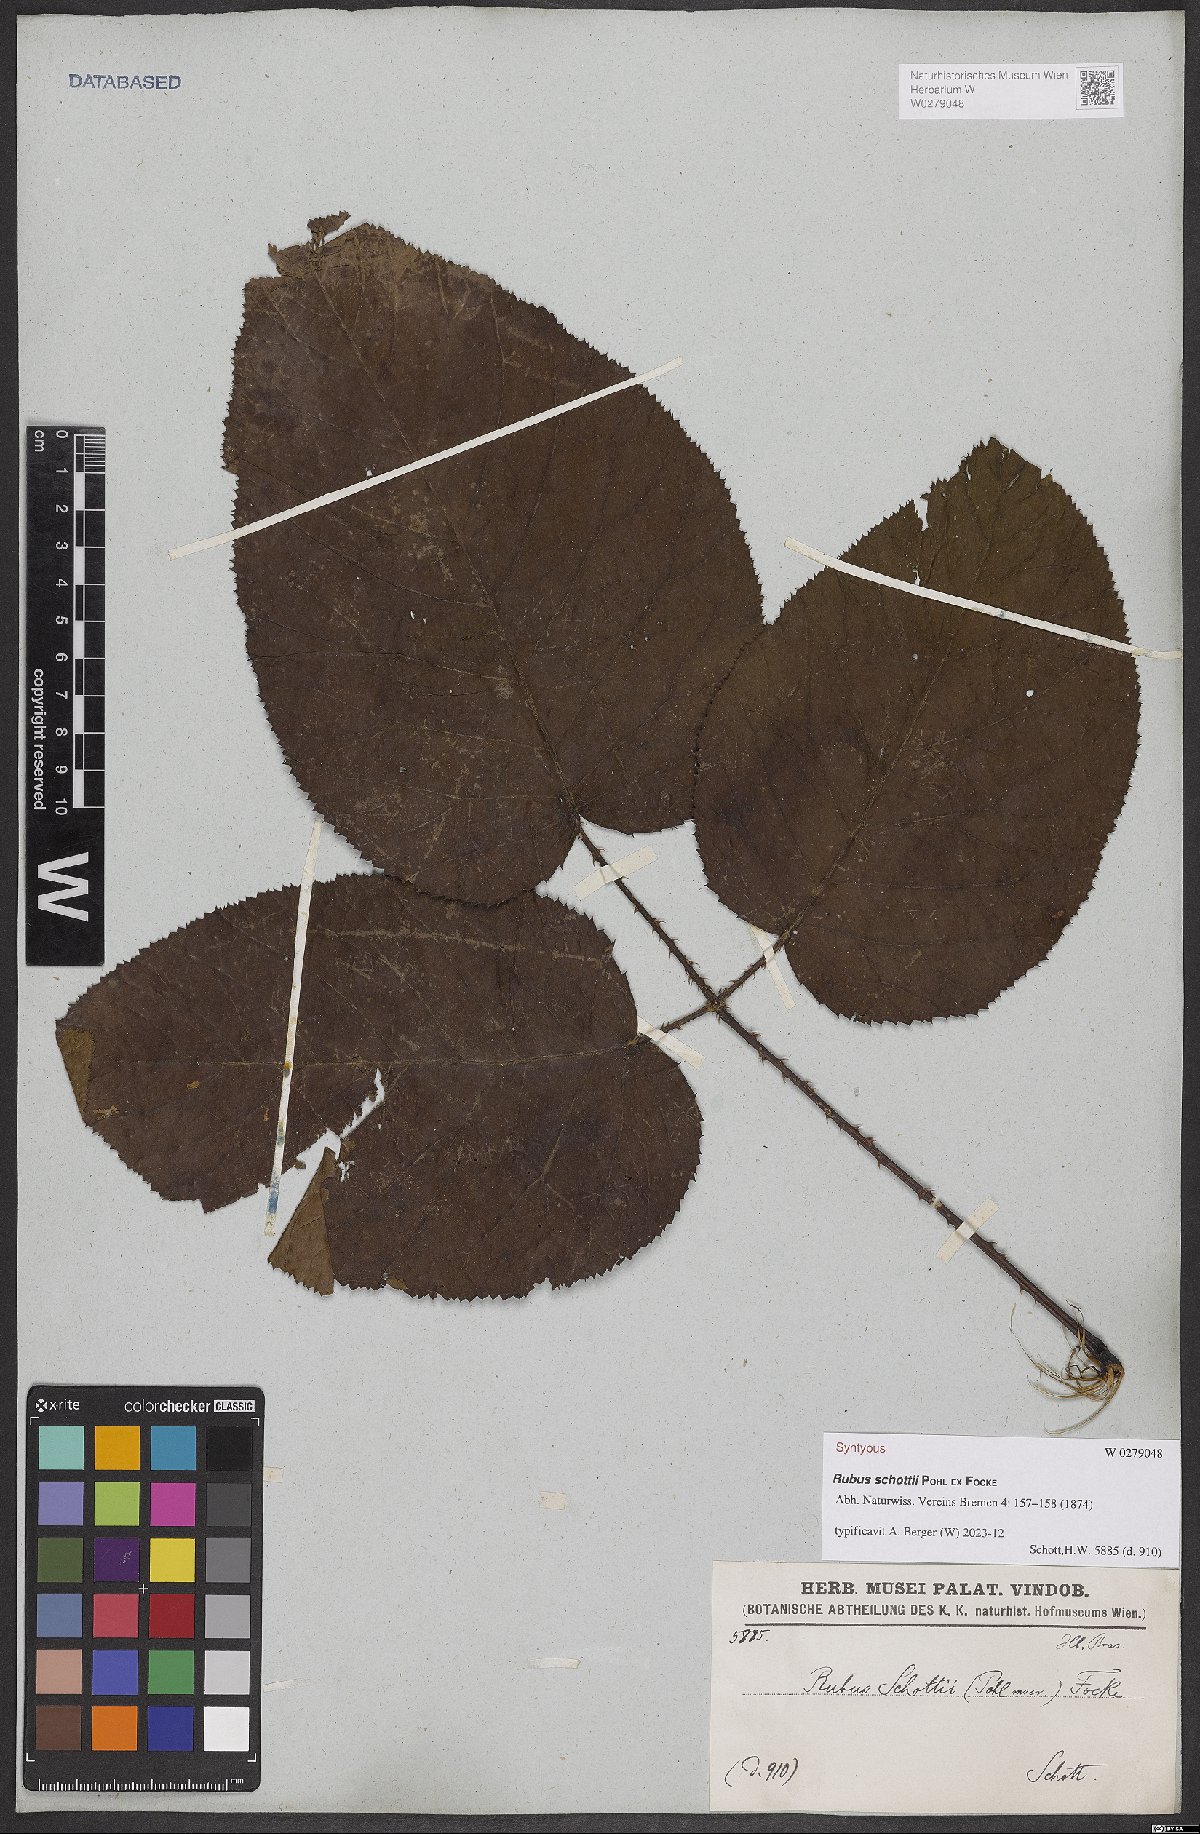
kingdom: Plantae
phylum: Tracheophyta
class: Magnoliopsida
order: Rosales
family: Rosaceae
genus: Rubus
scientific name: Rubus schottii
